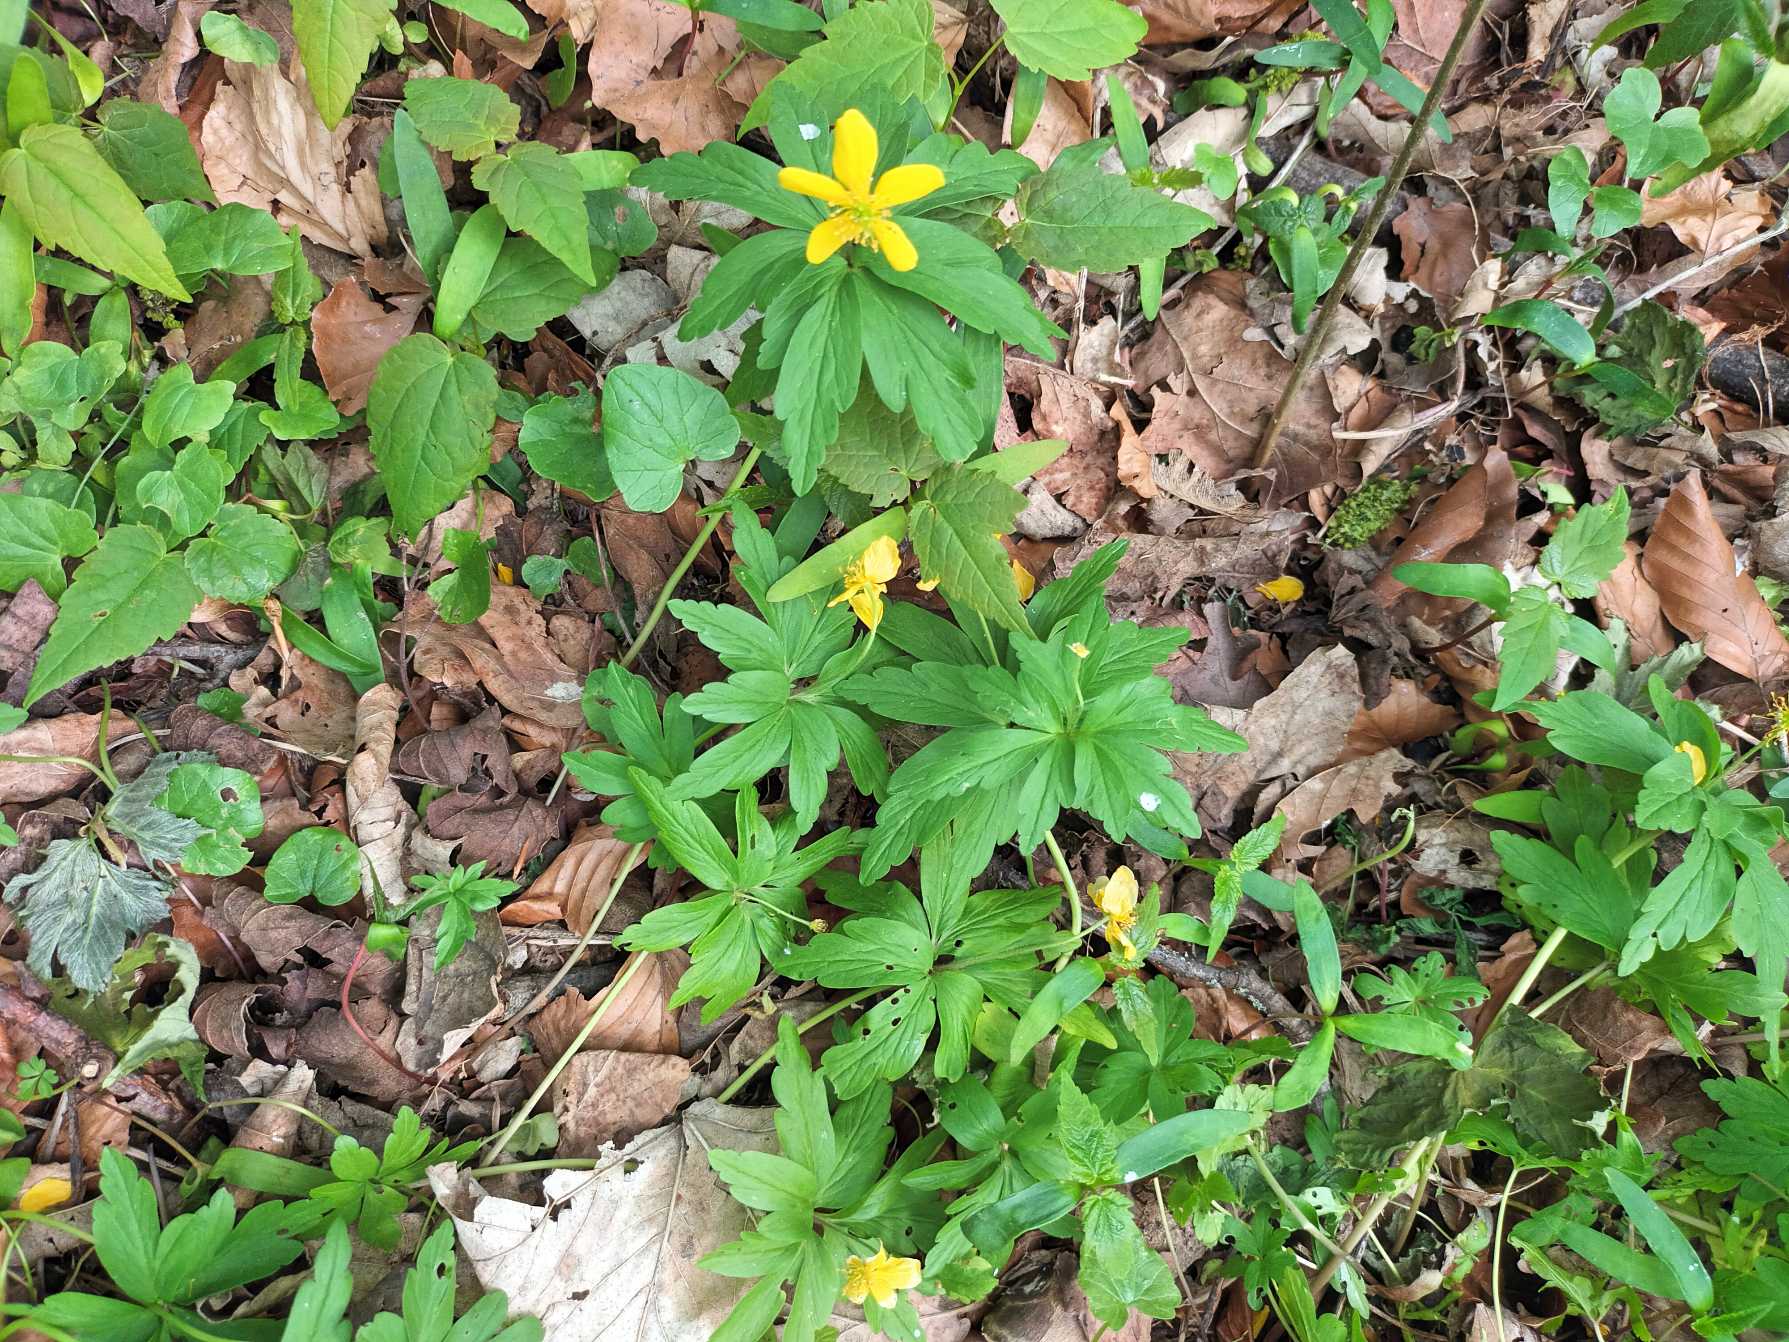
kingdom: Plantae
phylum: Tracheophyta
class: Magnoliopsida
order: Ranunculales
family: Ranunculaceae
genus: Anemone
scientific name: Anemone ranunculoides
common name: Gul anemone
